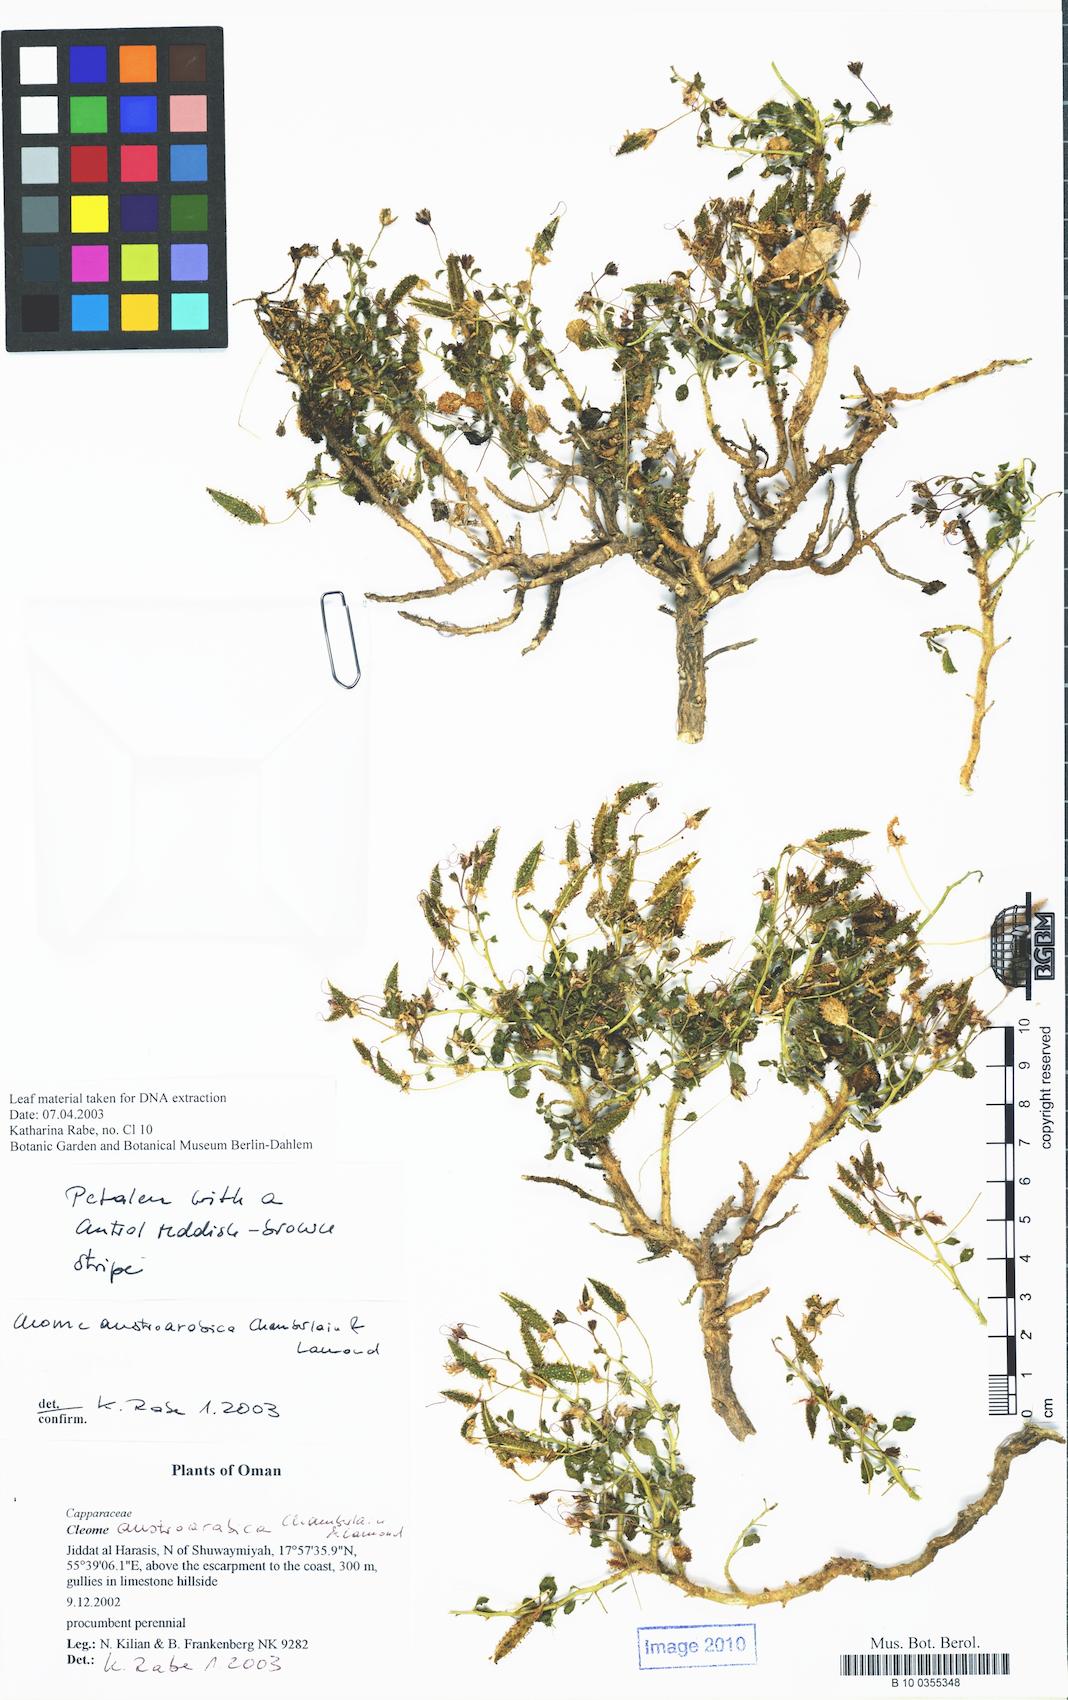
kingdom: Plantae
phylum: Tracheophyta
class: Magnoliopsida
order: Brassicales
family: Cleomaceae
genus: Rorida
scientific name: Rorida droserifolia
